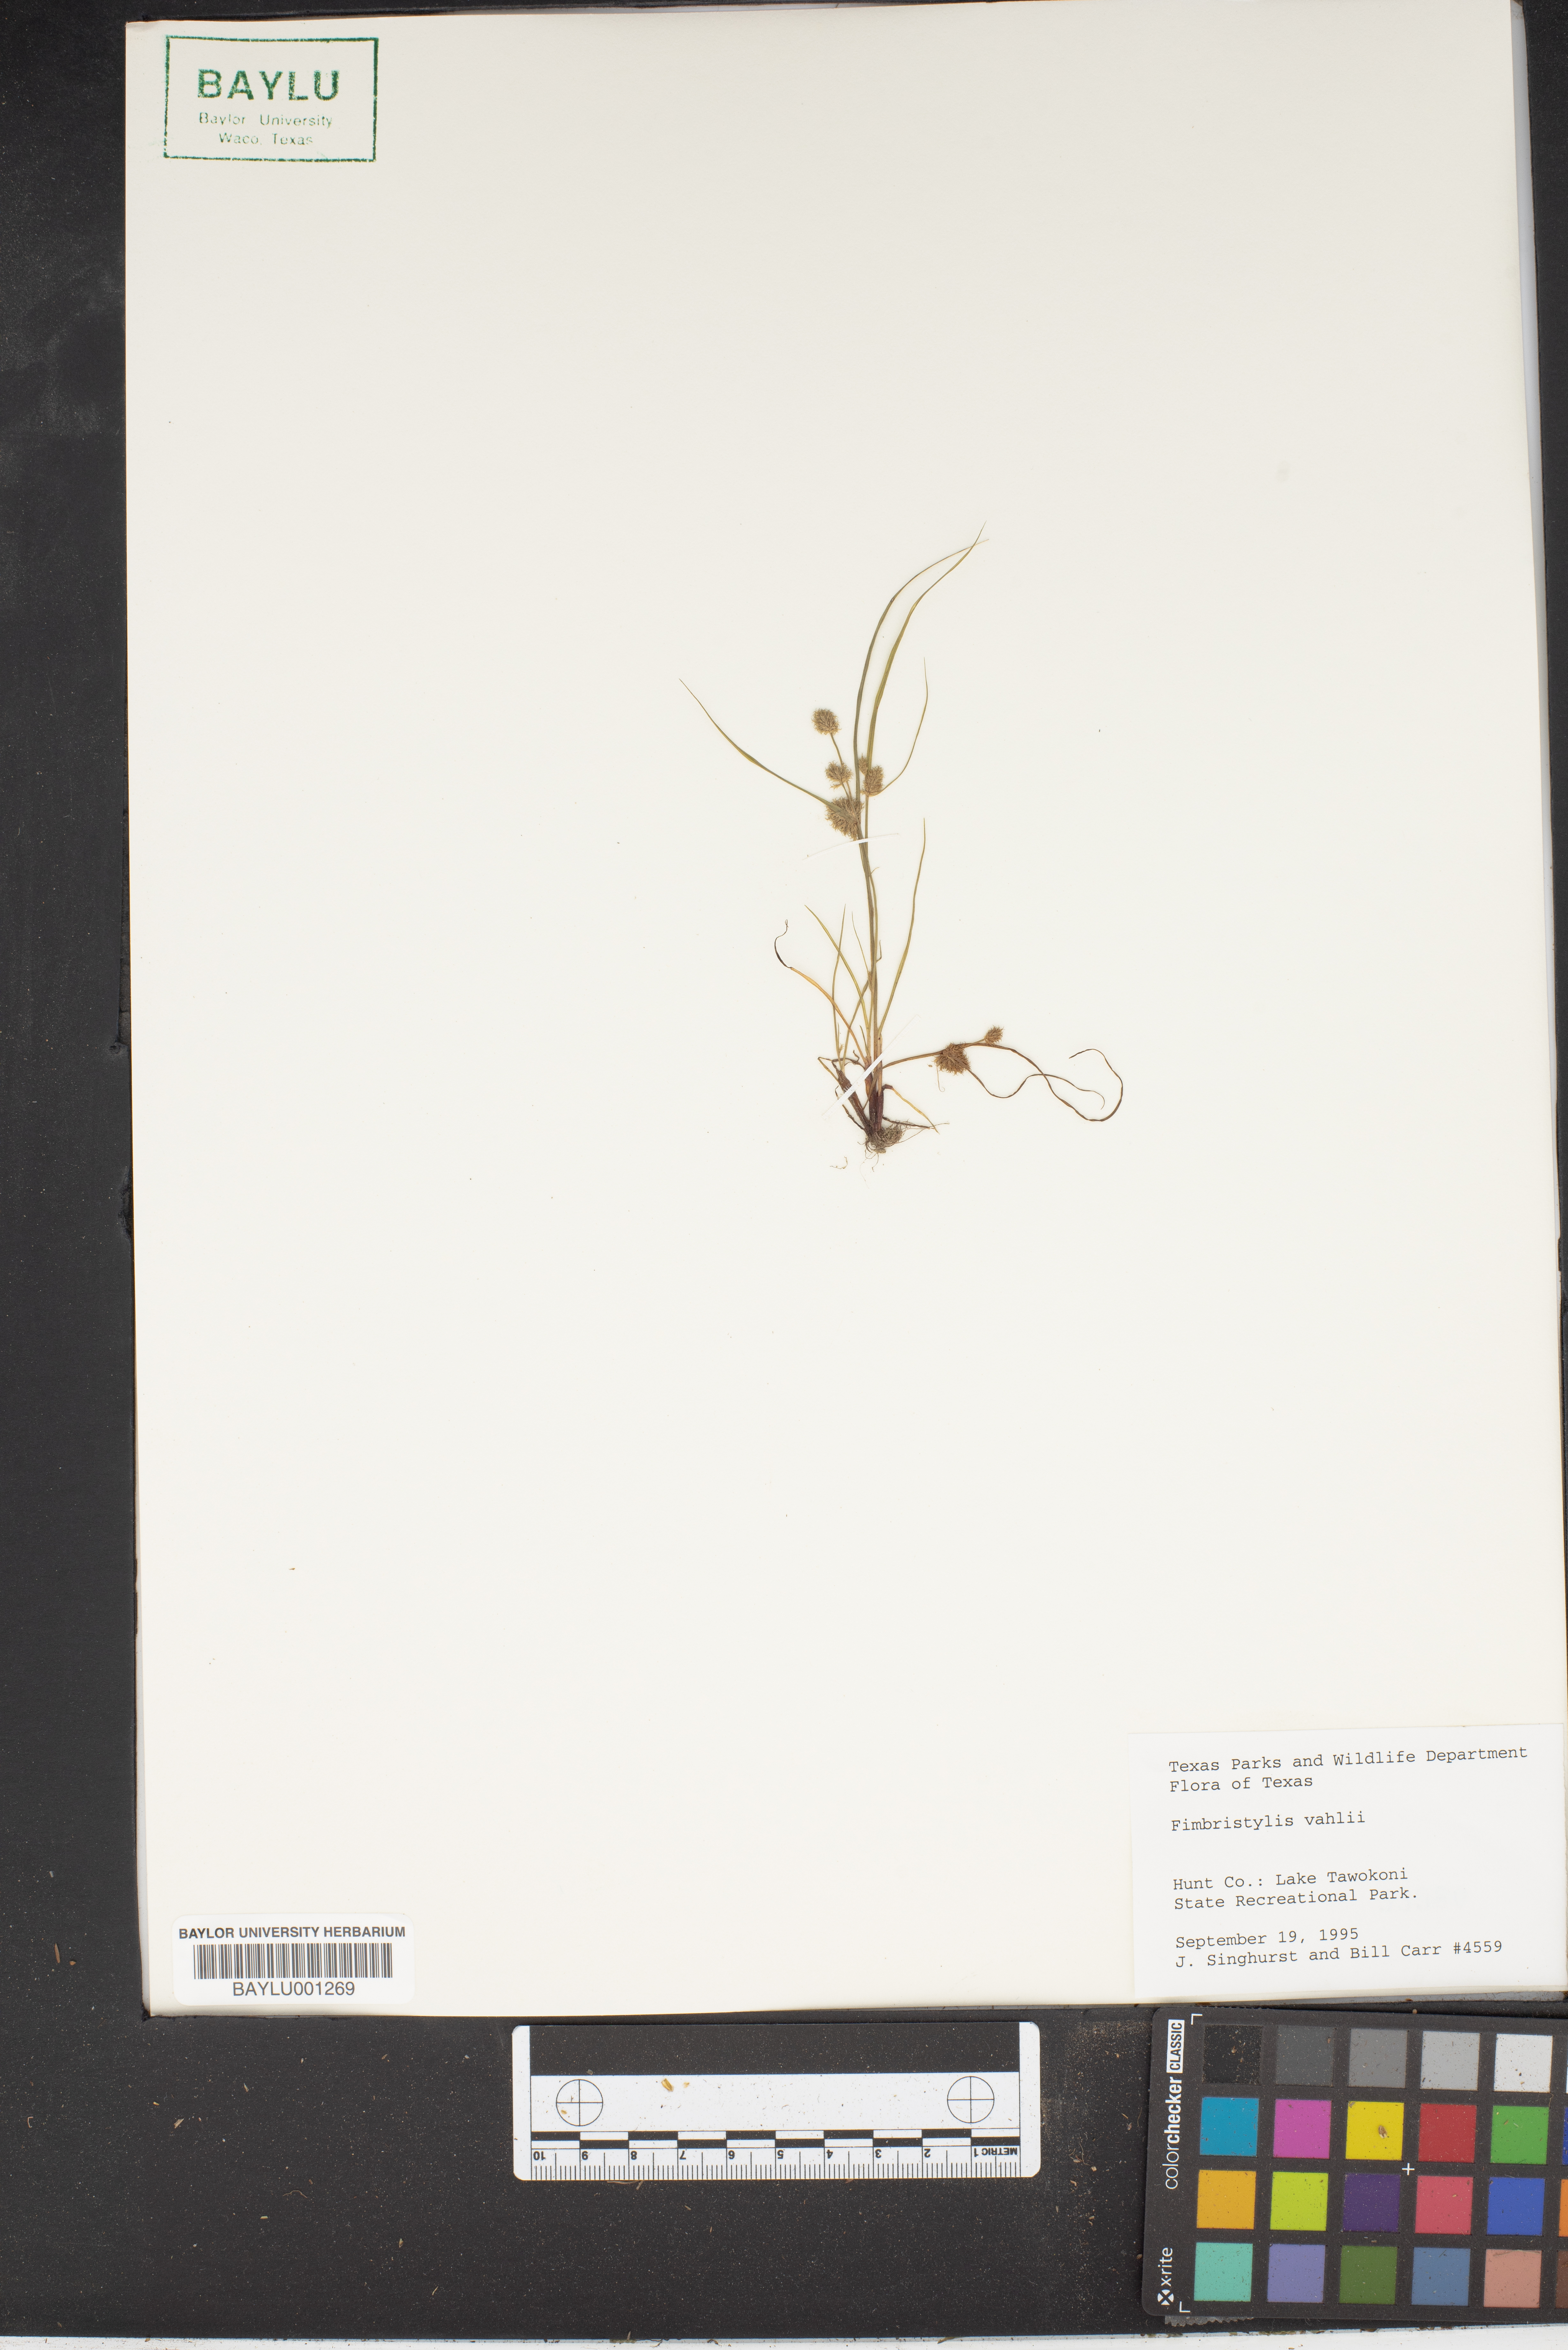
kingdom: Plantae
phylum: Tracheophyta
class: Liliopsida
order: Poales
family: Cyperaceae
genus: Fimbristylis
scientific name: Fimbristylis vahlii
